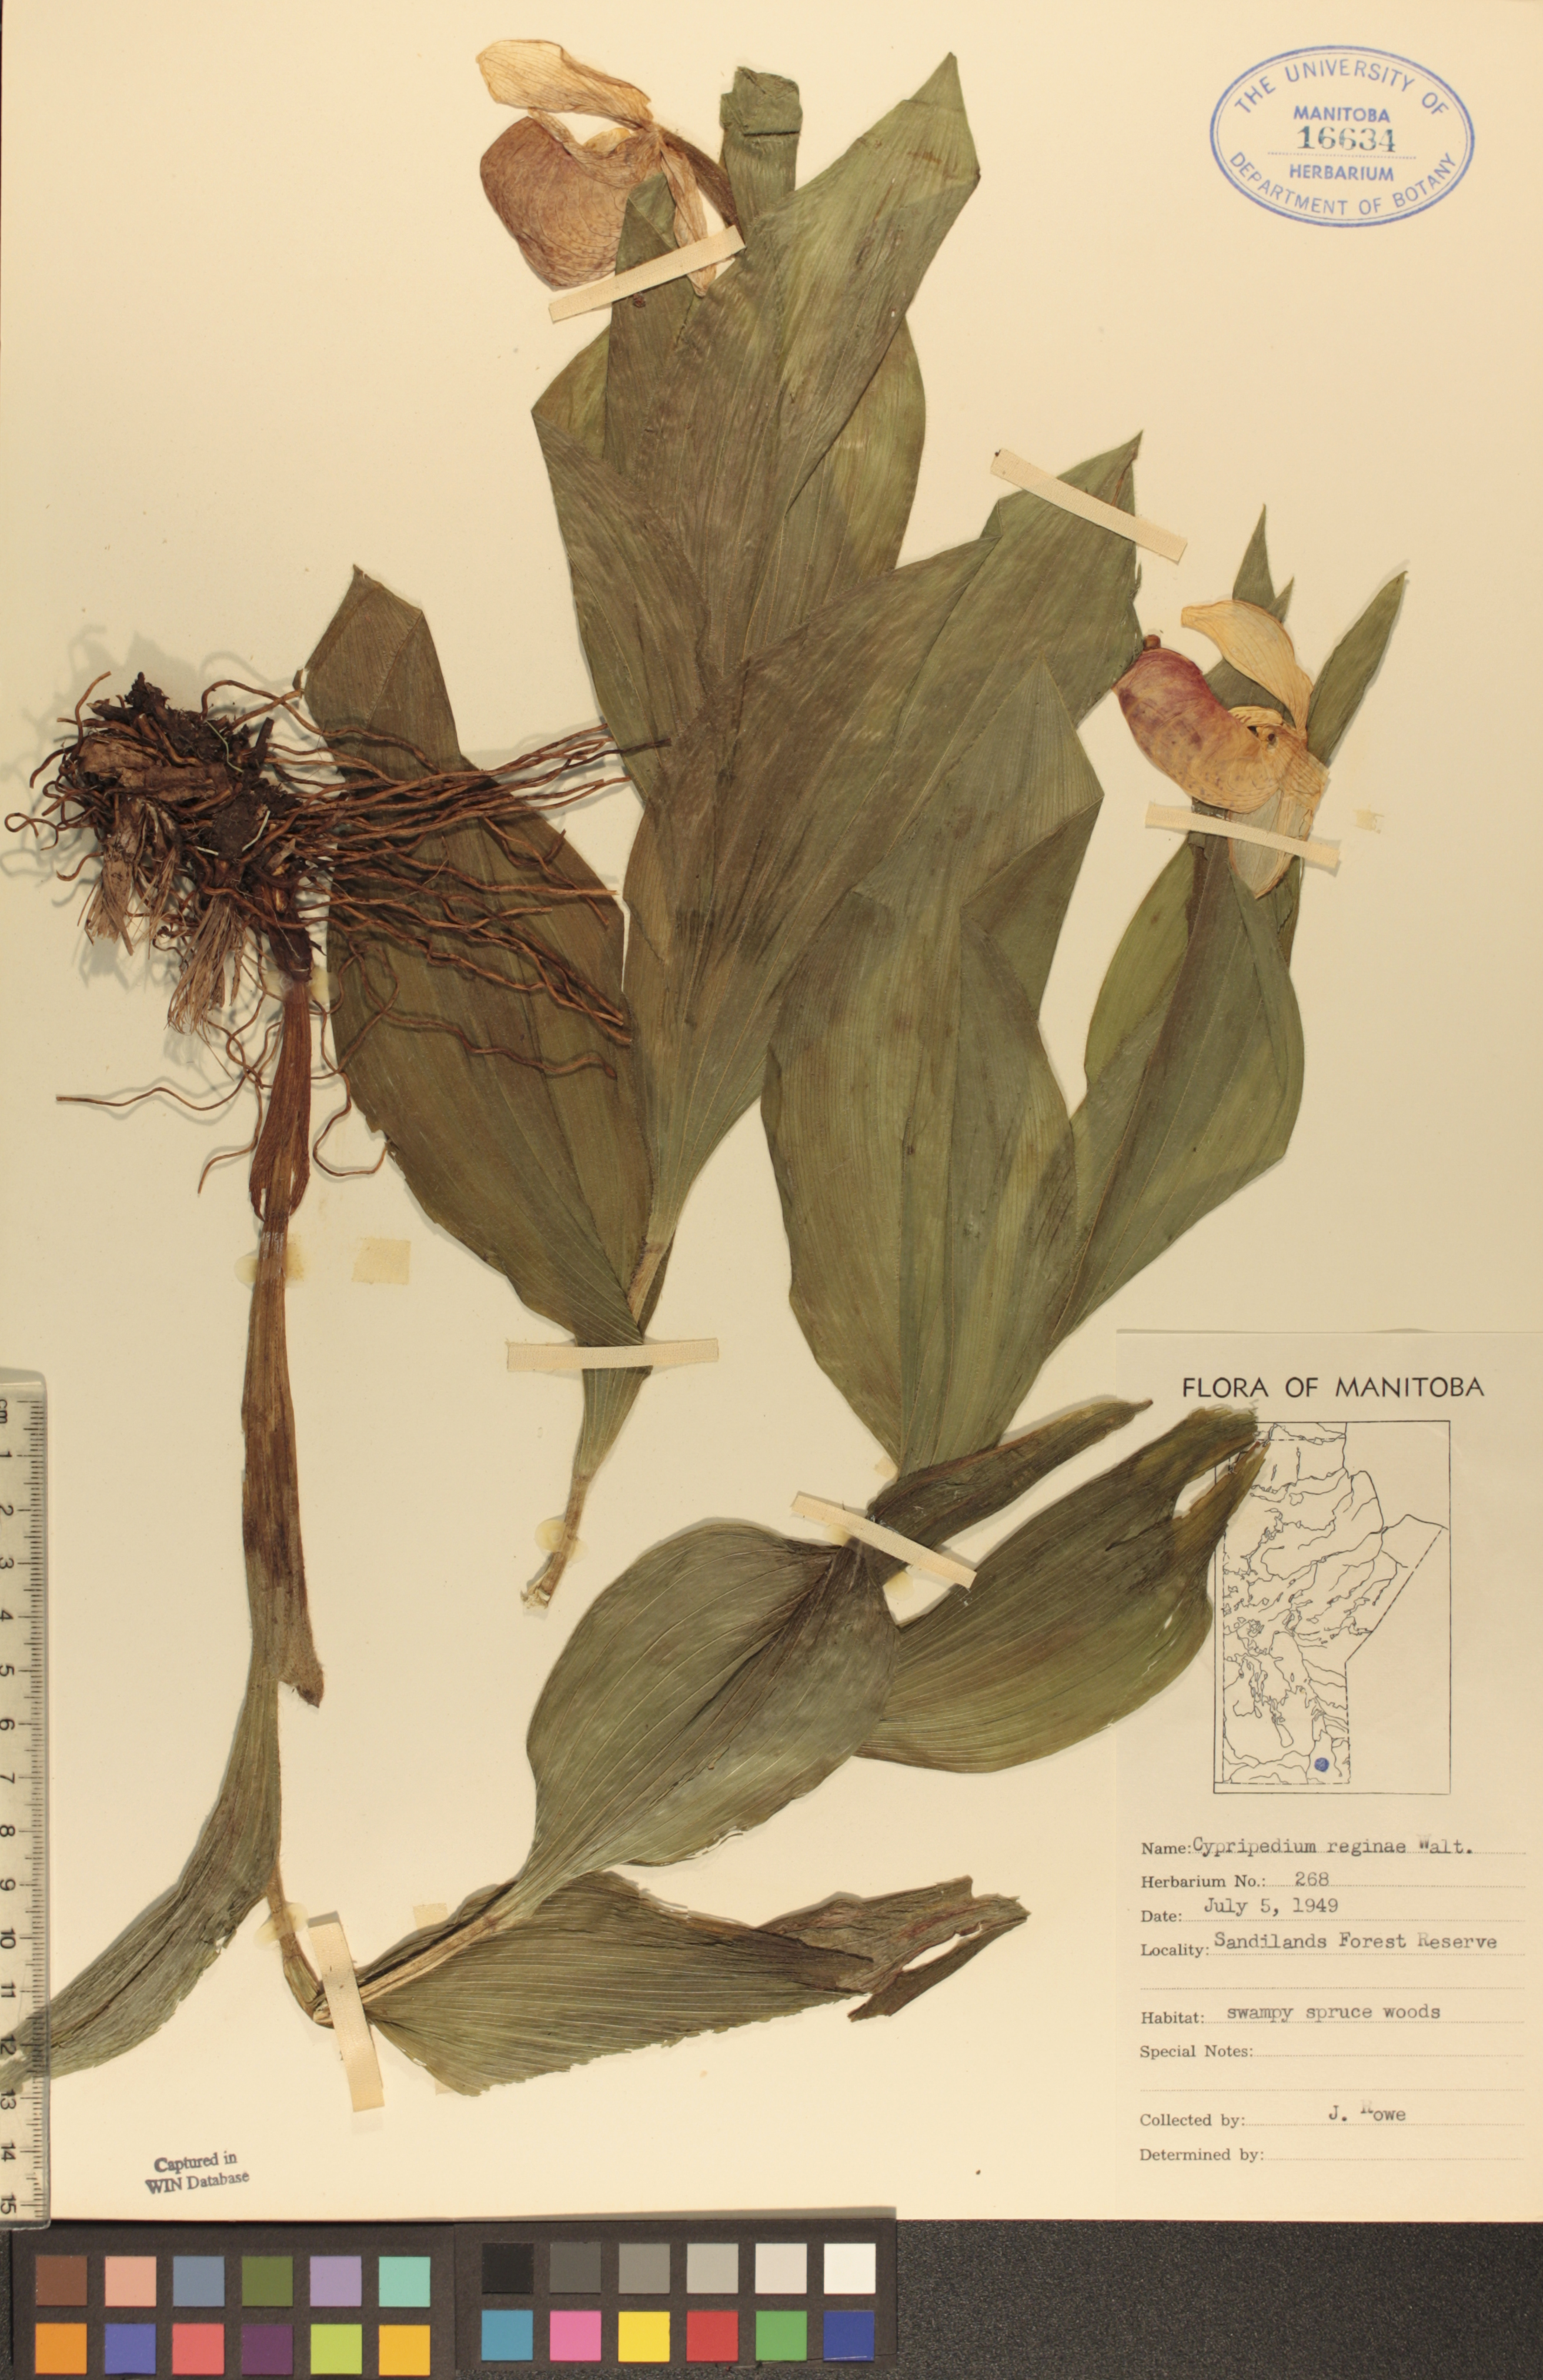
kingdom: Plantae
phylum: Tracheophyta
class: Liliopsida
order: Asparagales
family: Orchidaceae
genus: Cypripedium
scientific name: Cypripedium reginae
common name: Queen lady's-slipper
